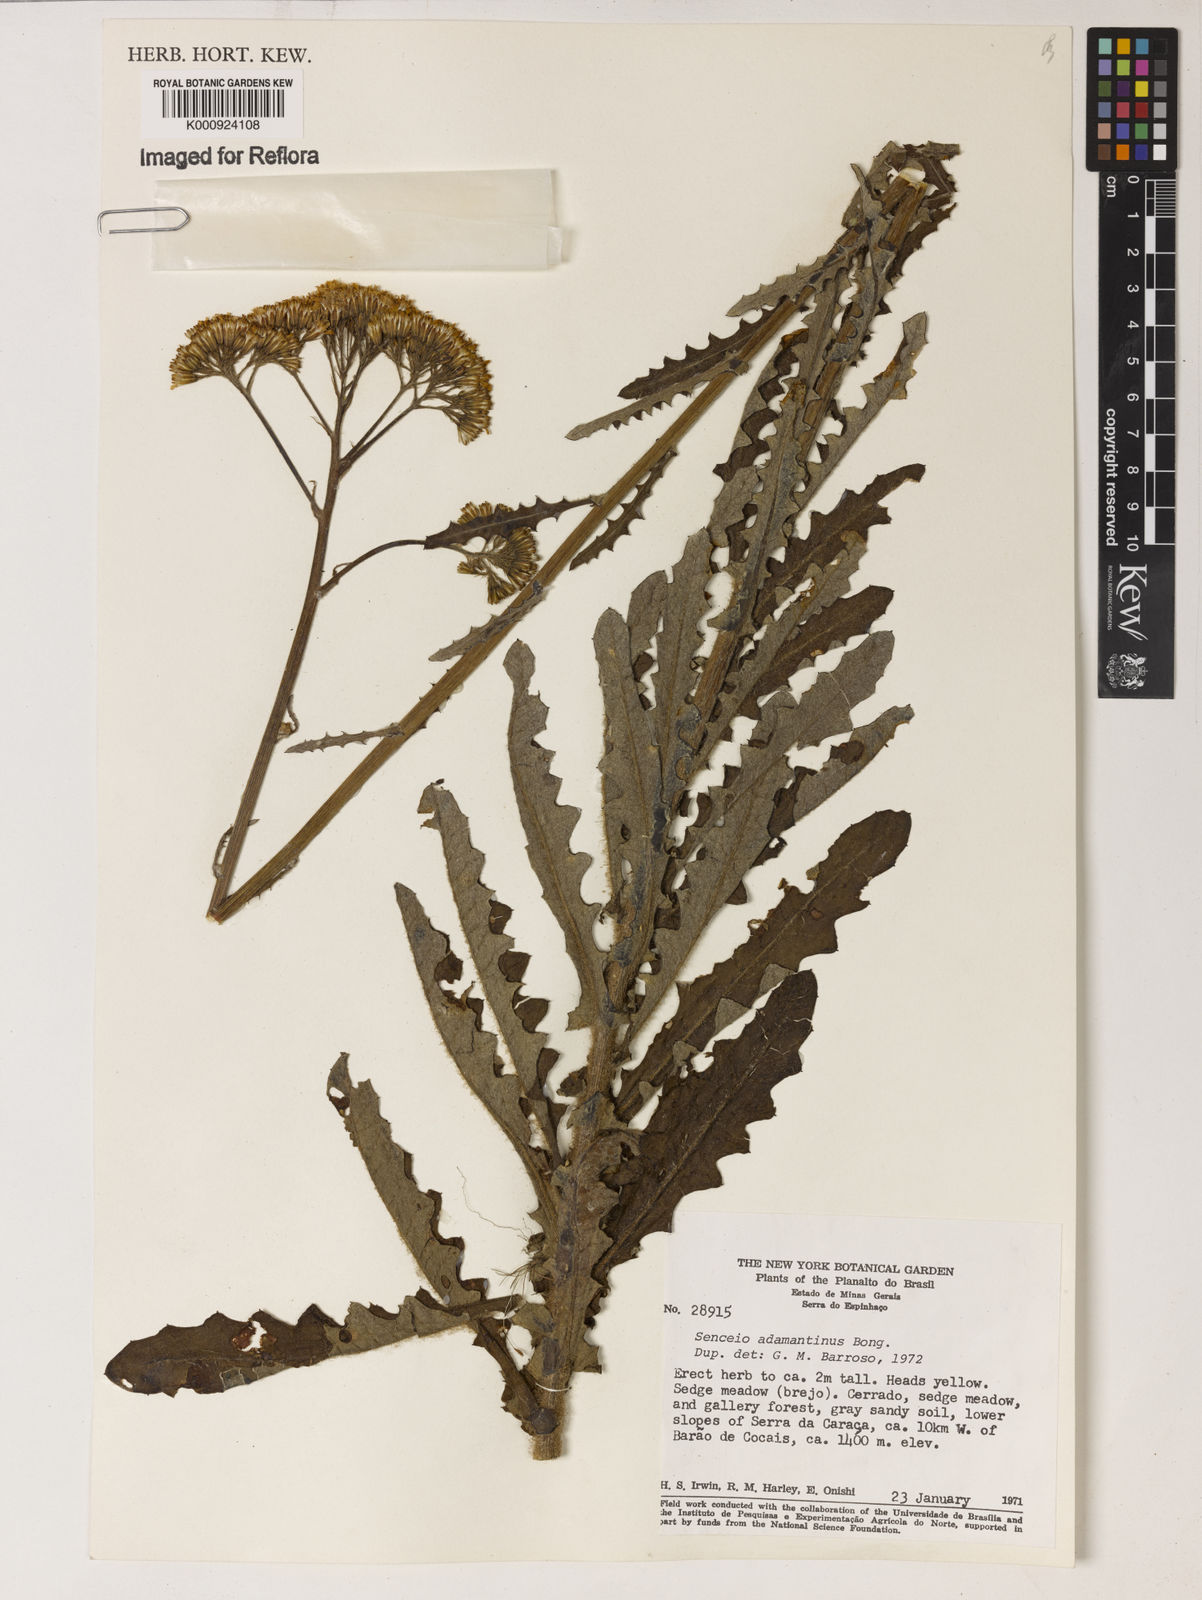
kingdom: Plantae
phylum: Tracheophyta
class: Magnoliopsida
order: Asterales
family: Asteraceae
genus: Senecio
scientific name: Senecio
